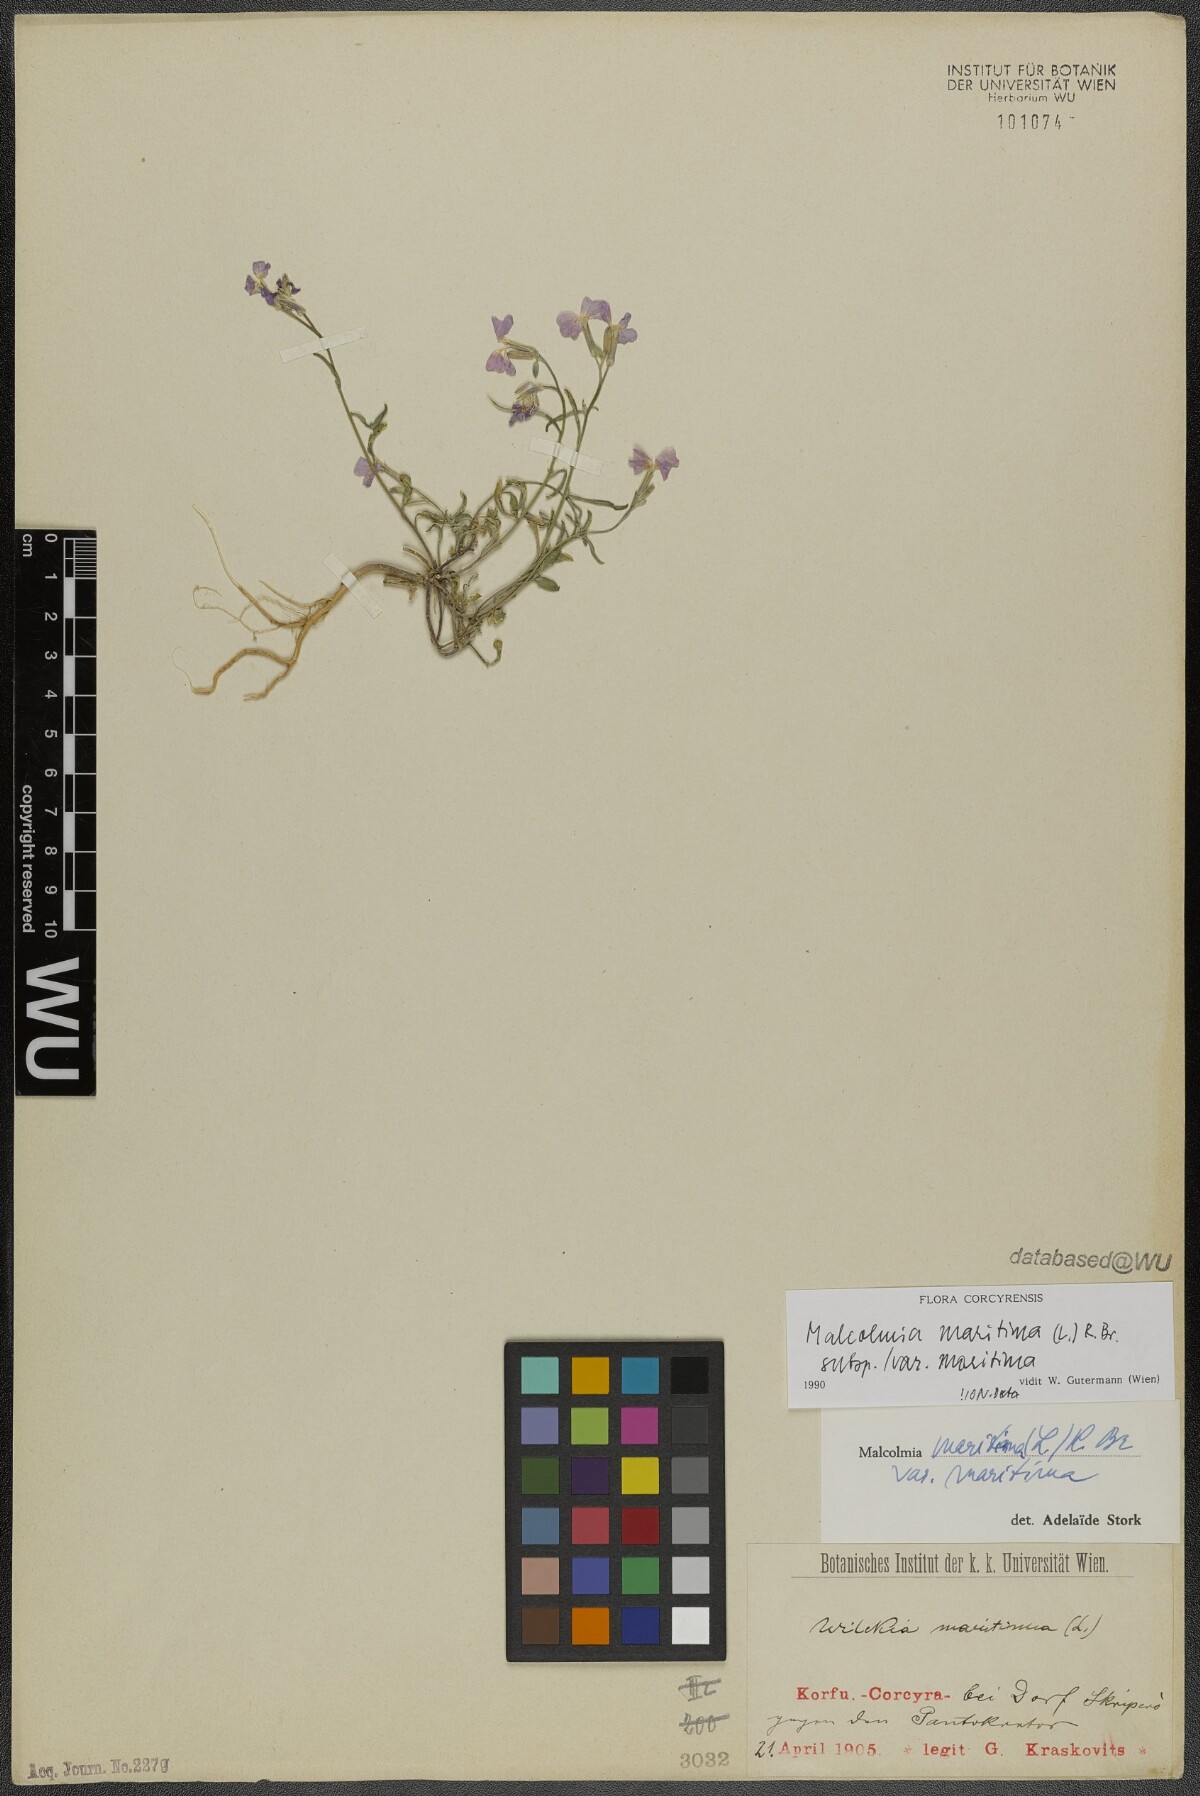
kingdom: Plantae
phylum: Tracheophyta
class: Magnoliopsida
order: Brassicales
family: Brassicaceae
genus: Malcolmia
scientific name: Malcolmia maritima
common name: Virginia stock
